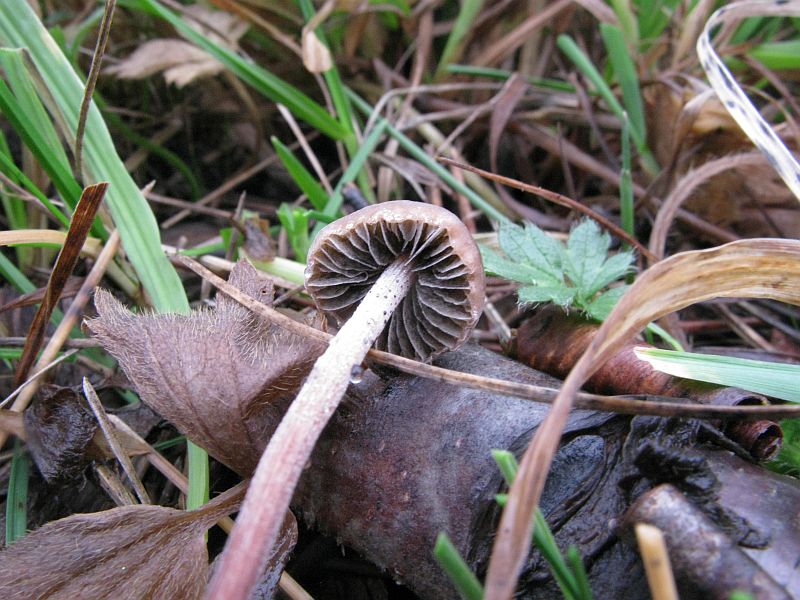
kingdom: Fungi
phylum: Basidiomycota
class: Agaricomycetes
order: Agaricales
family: Bolbitiaceae
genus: Panaeolus
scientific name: Panaeolus acuminatus
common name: høj glanshat
